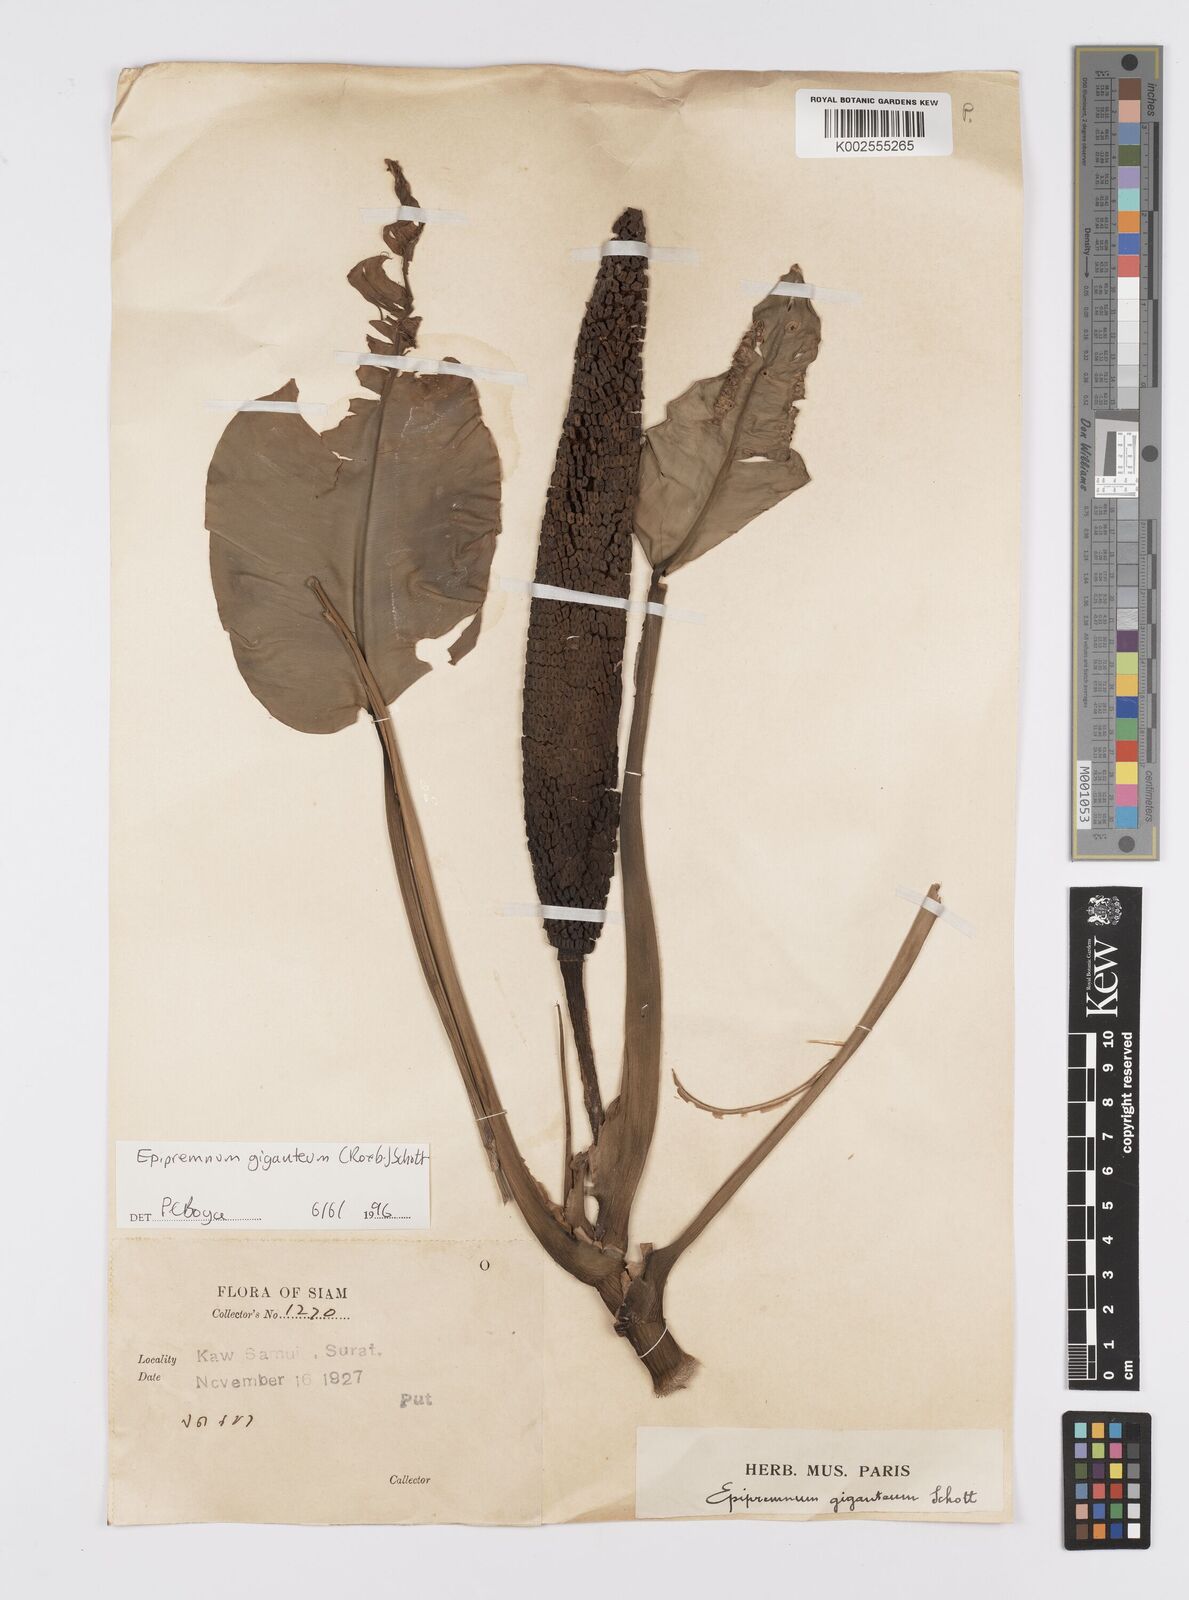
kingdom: Plantae
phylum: Tracheophyta
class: Liliopsida
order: Alismatales
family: Araceae
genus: Epipremnum
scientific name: Epipremnum giganteum
